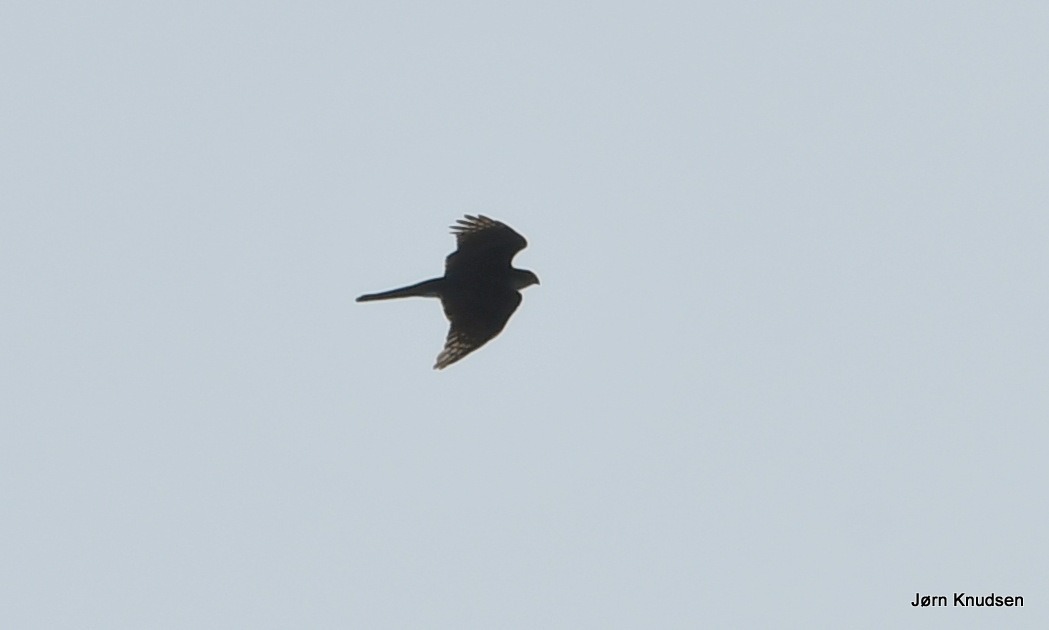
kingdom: Animalia
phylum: Chordata
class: Aves
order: Accipitriformes
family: Accipitridae
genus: Accipiter
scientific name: Accipiter nisus
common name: Spurvehøg
